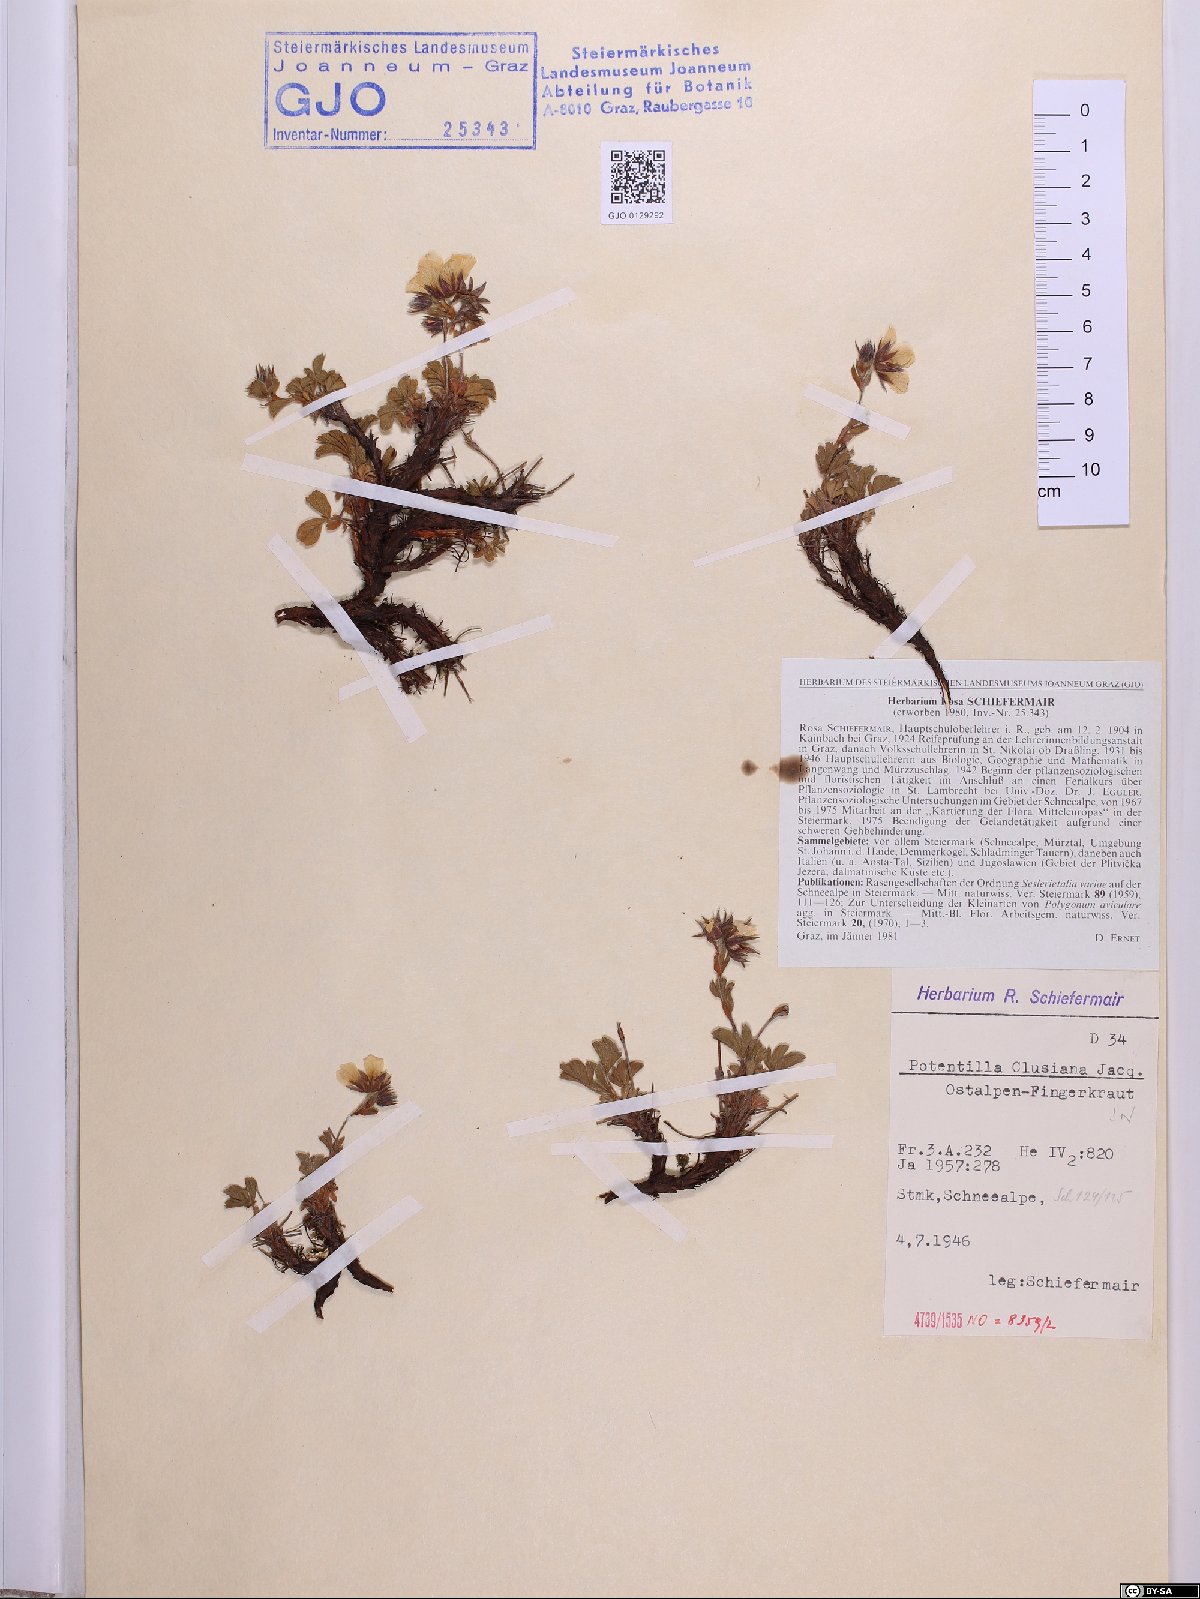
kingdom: Plantae
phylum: Tracheophyta
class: Magnoliopsida
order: Rosales
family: Rosaceae
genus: Potentilla
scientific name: Potentilla clusiana
